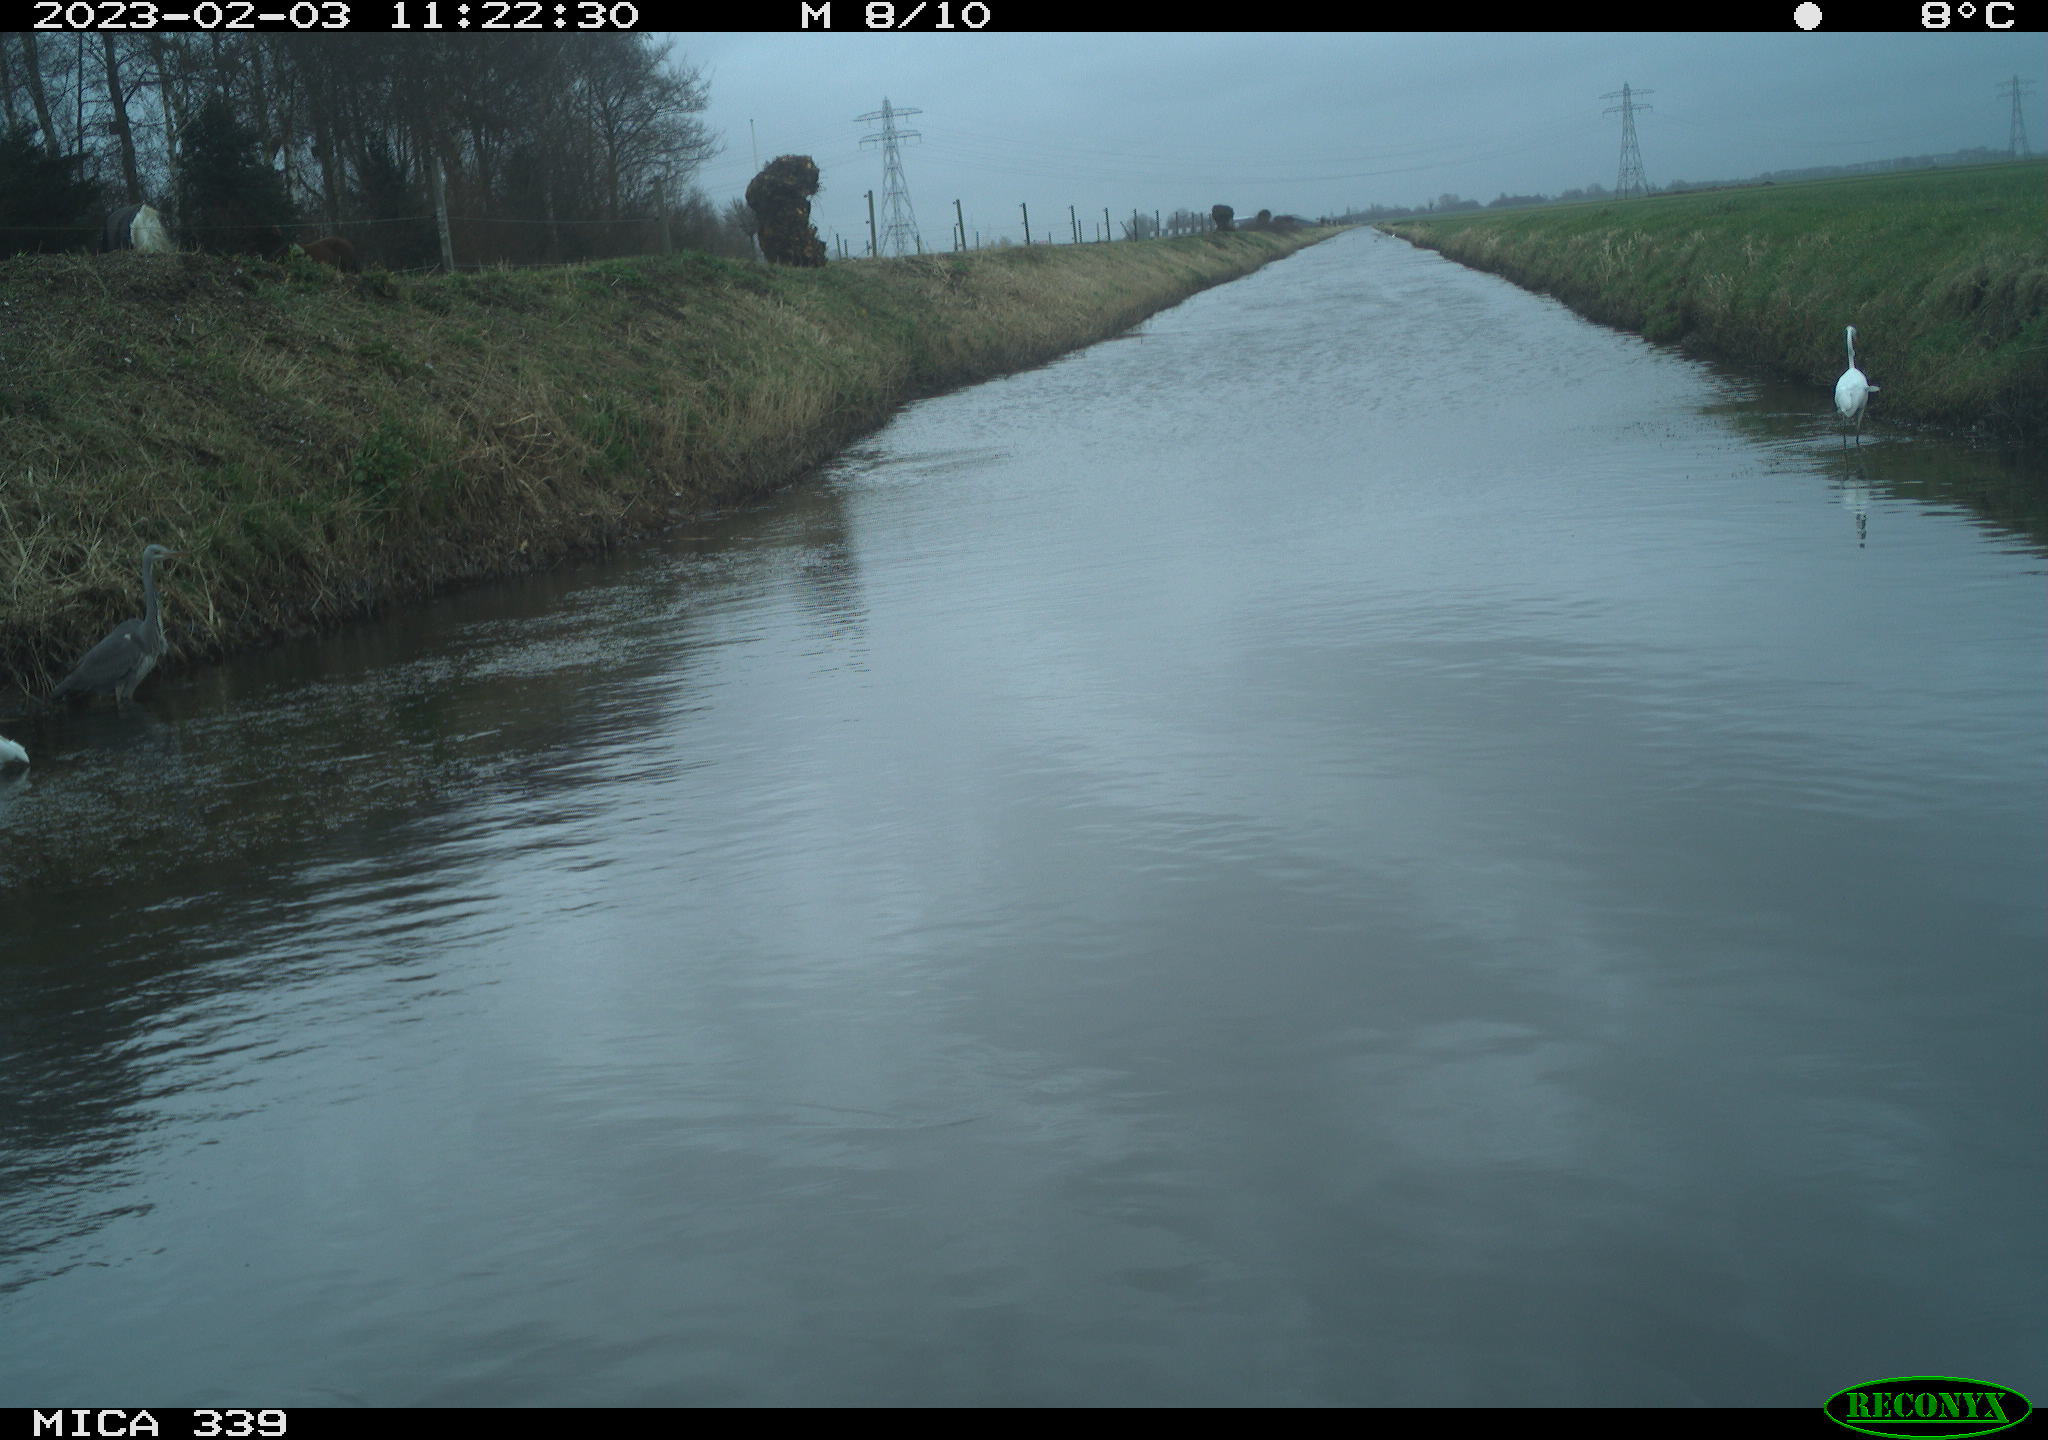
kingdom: Animalia
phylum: Chordata
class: Aves
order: Pelecaniformes
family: Ardeidae
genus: Ardea
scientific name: Ardea alba
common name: Great egret
